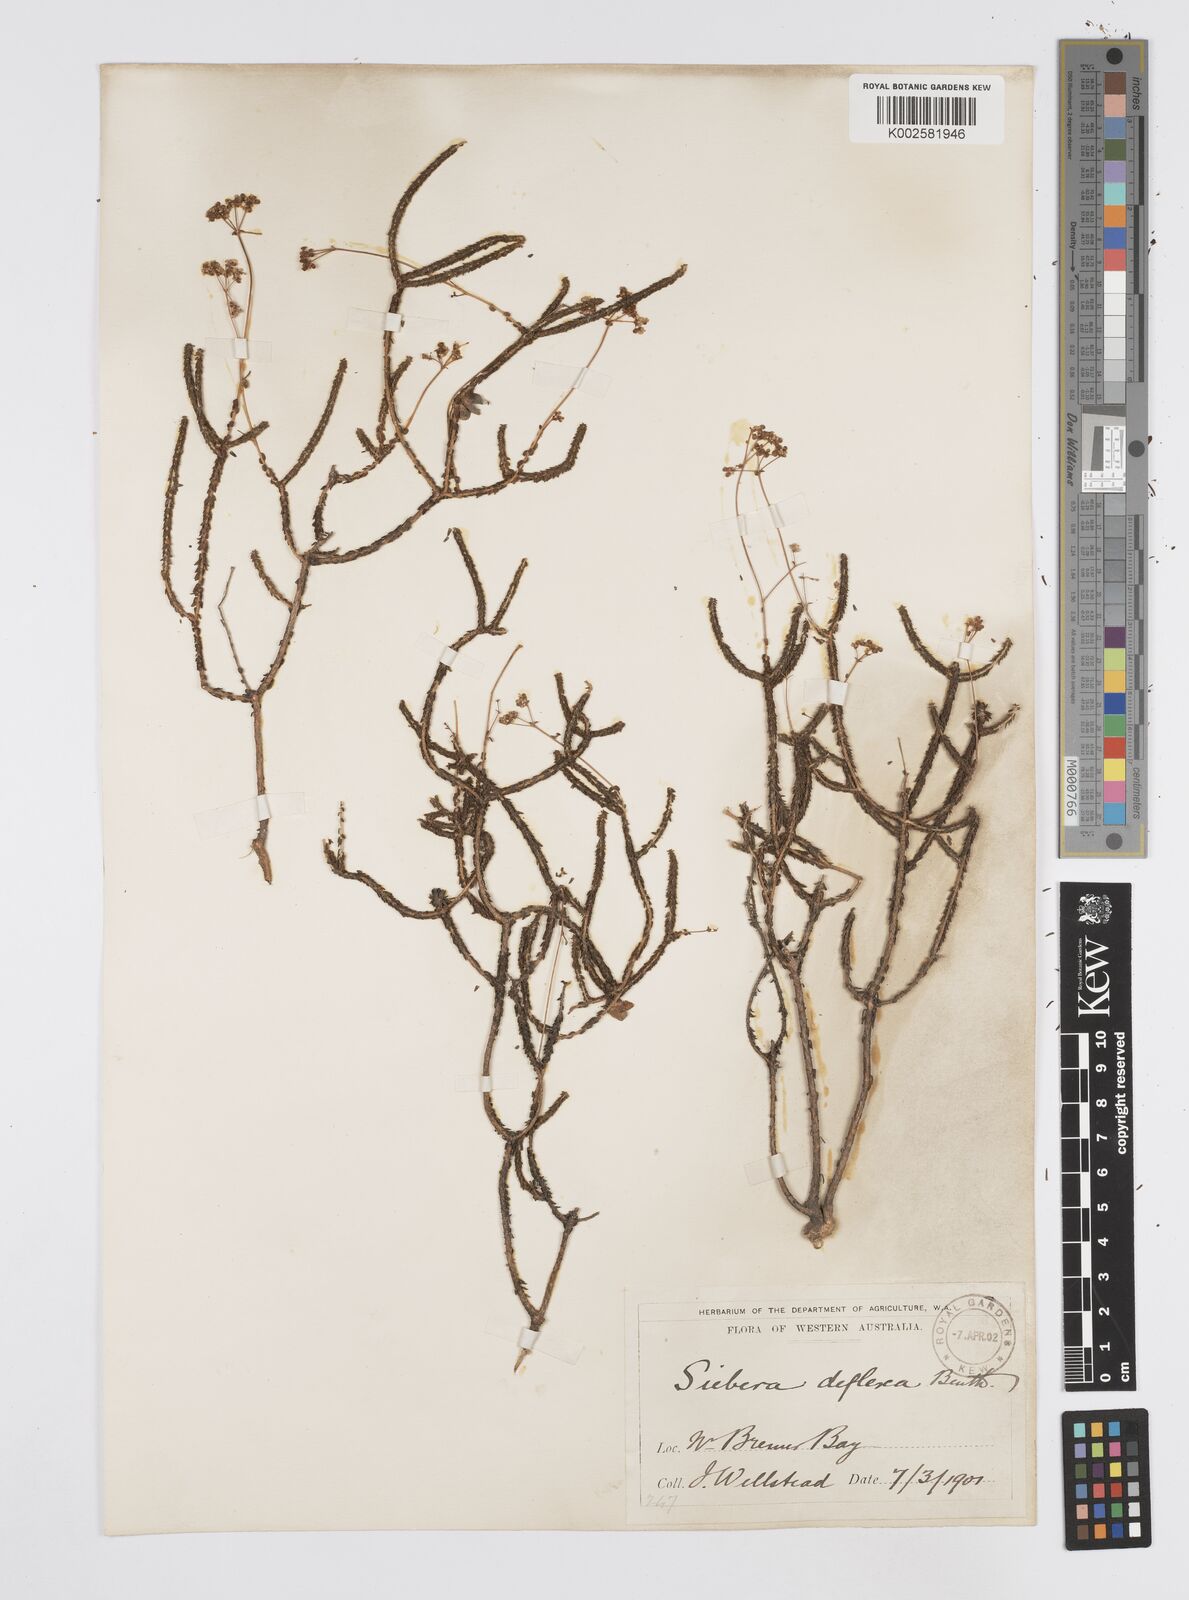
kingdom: Plantae
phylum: Tracheophyta
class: Magnoliopsida
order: Apiales
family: Apiaceae
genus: Platysace
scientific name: Platysace deflexa
